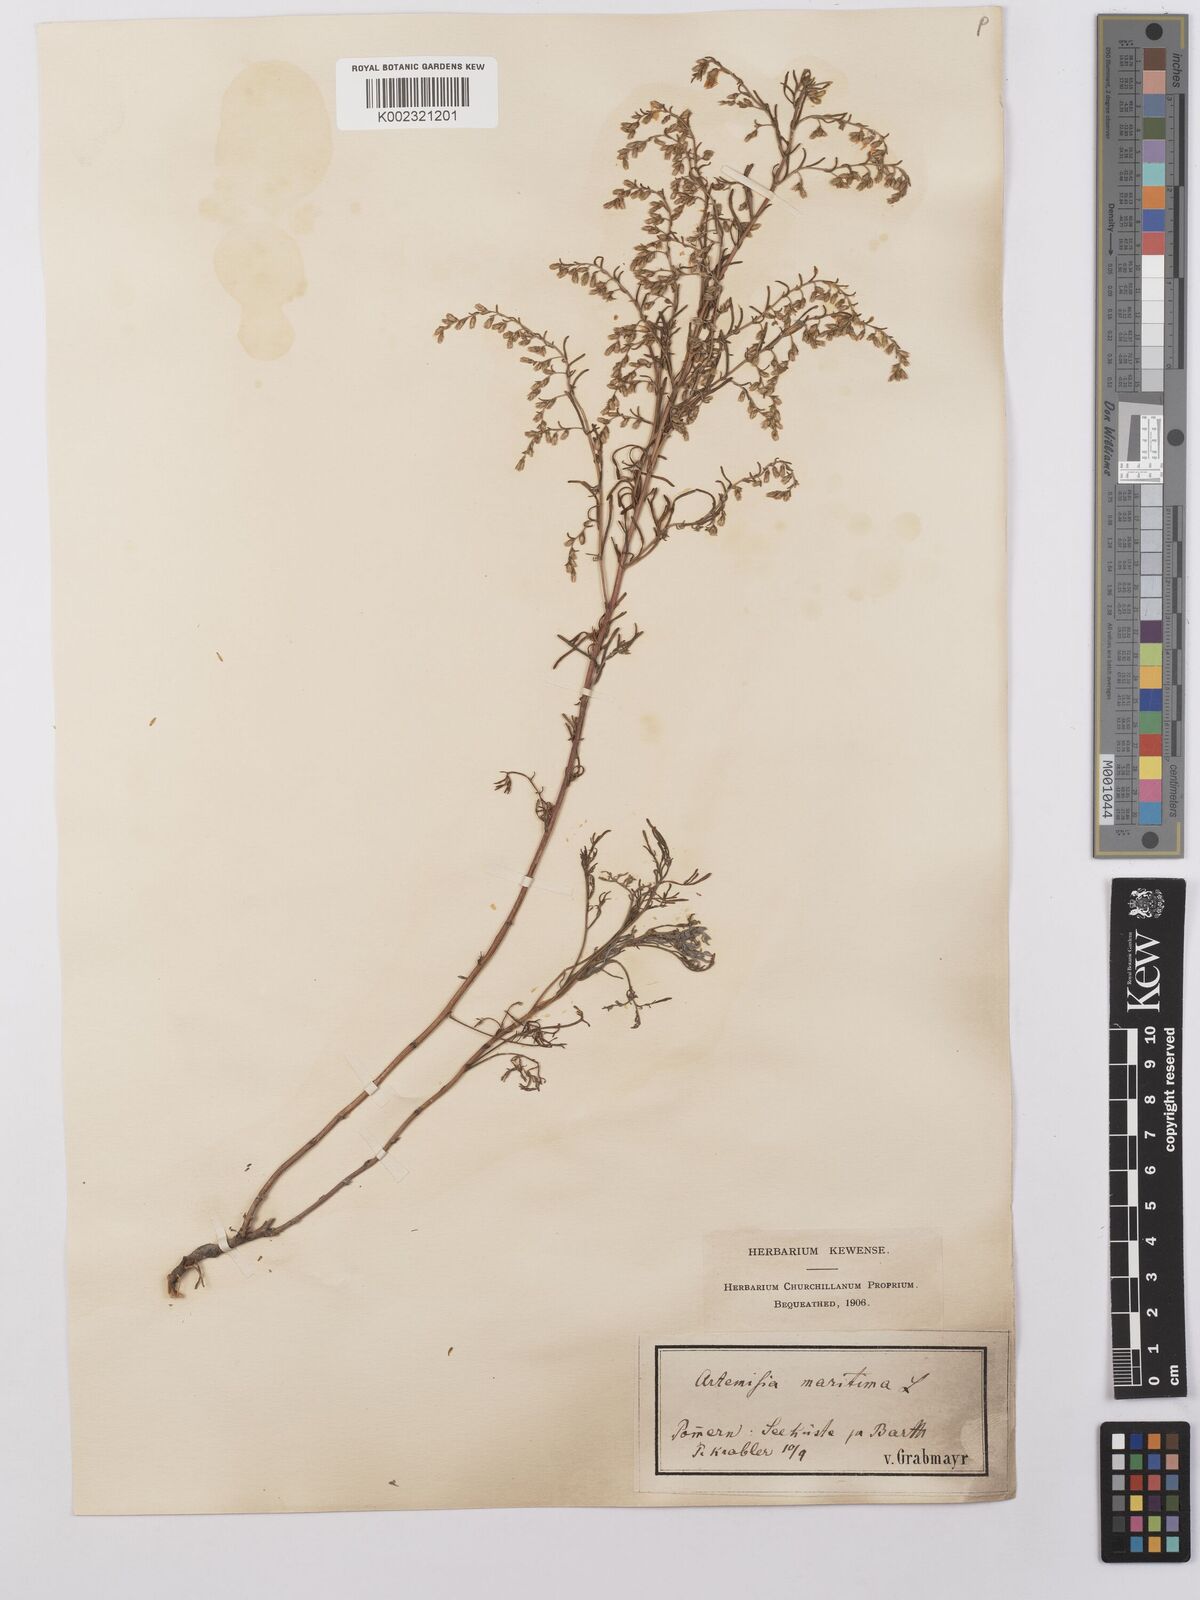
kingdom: Plantae
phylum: Tracheophyta
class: Magnoliopsida
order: Asterales
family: Asteraceae
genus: Artemisia
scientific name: Artemisia maritima
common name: Wormseed
